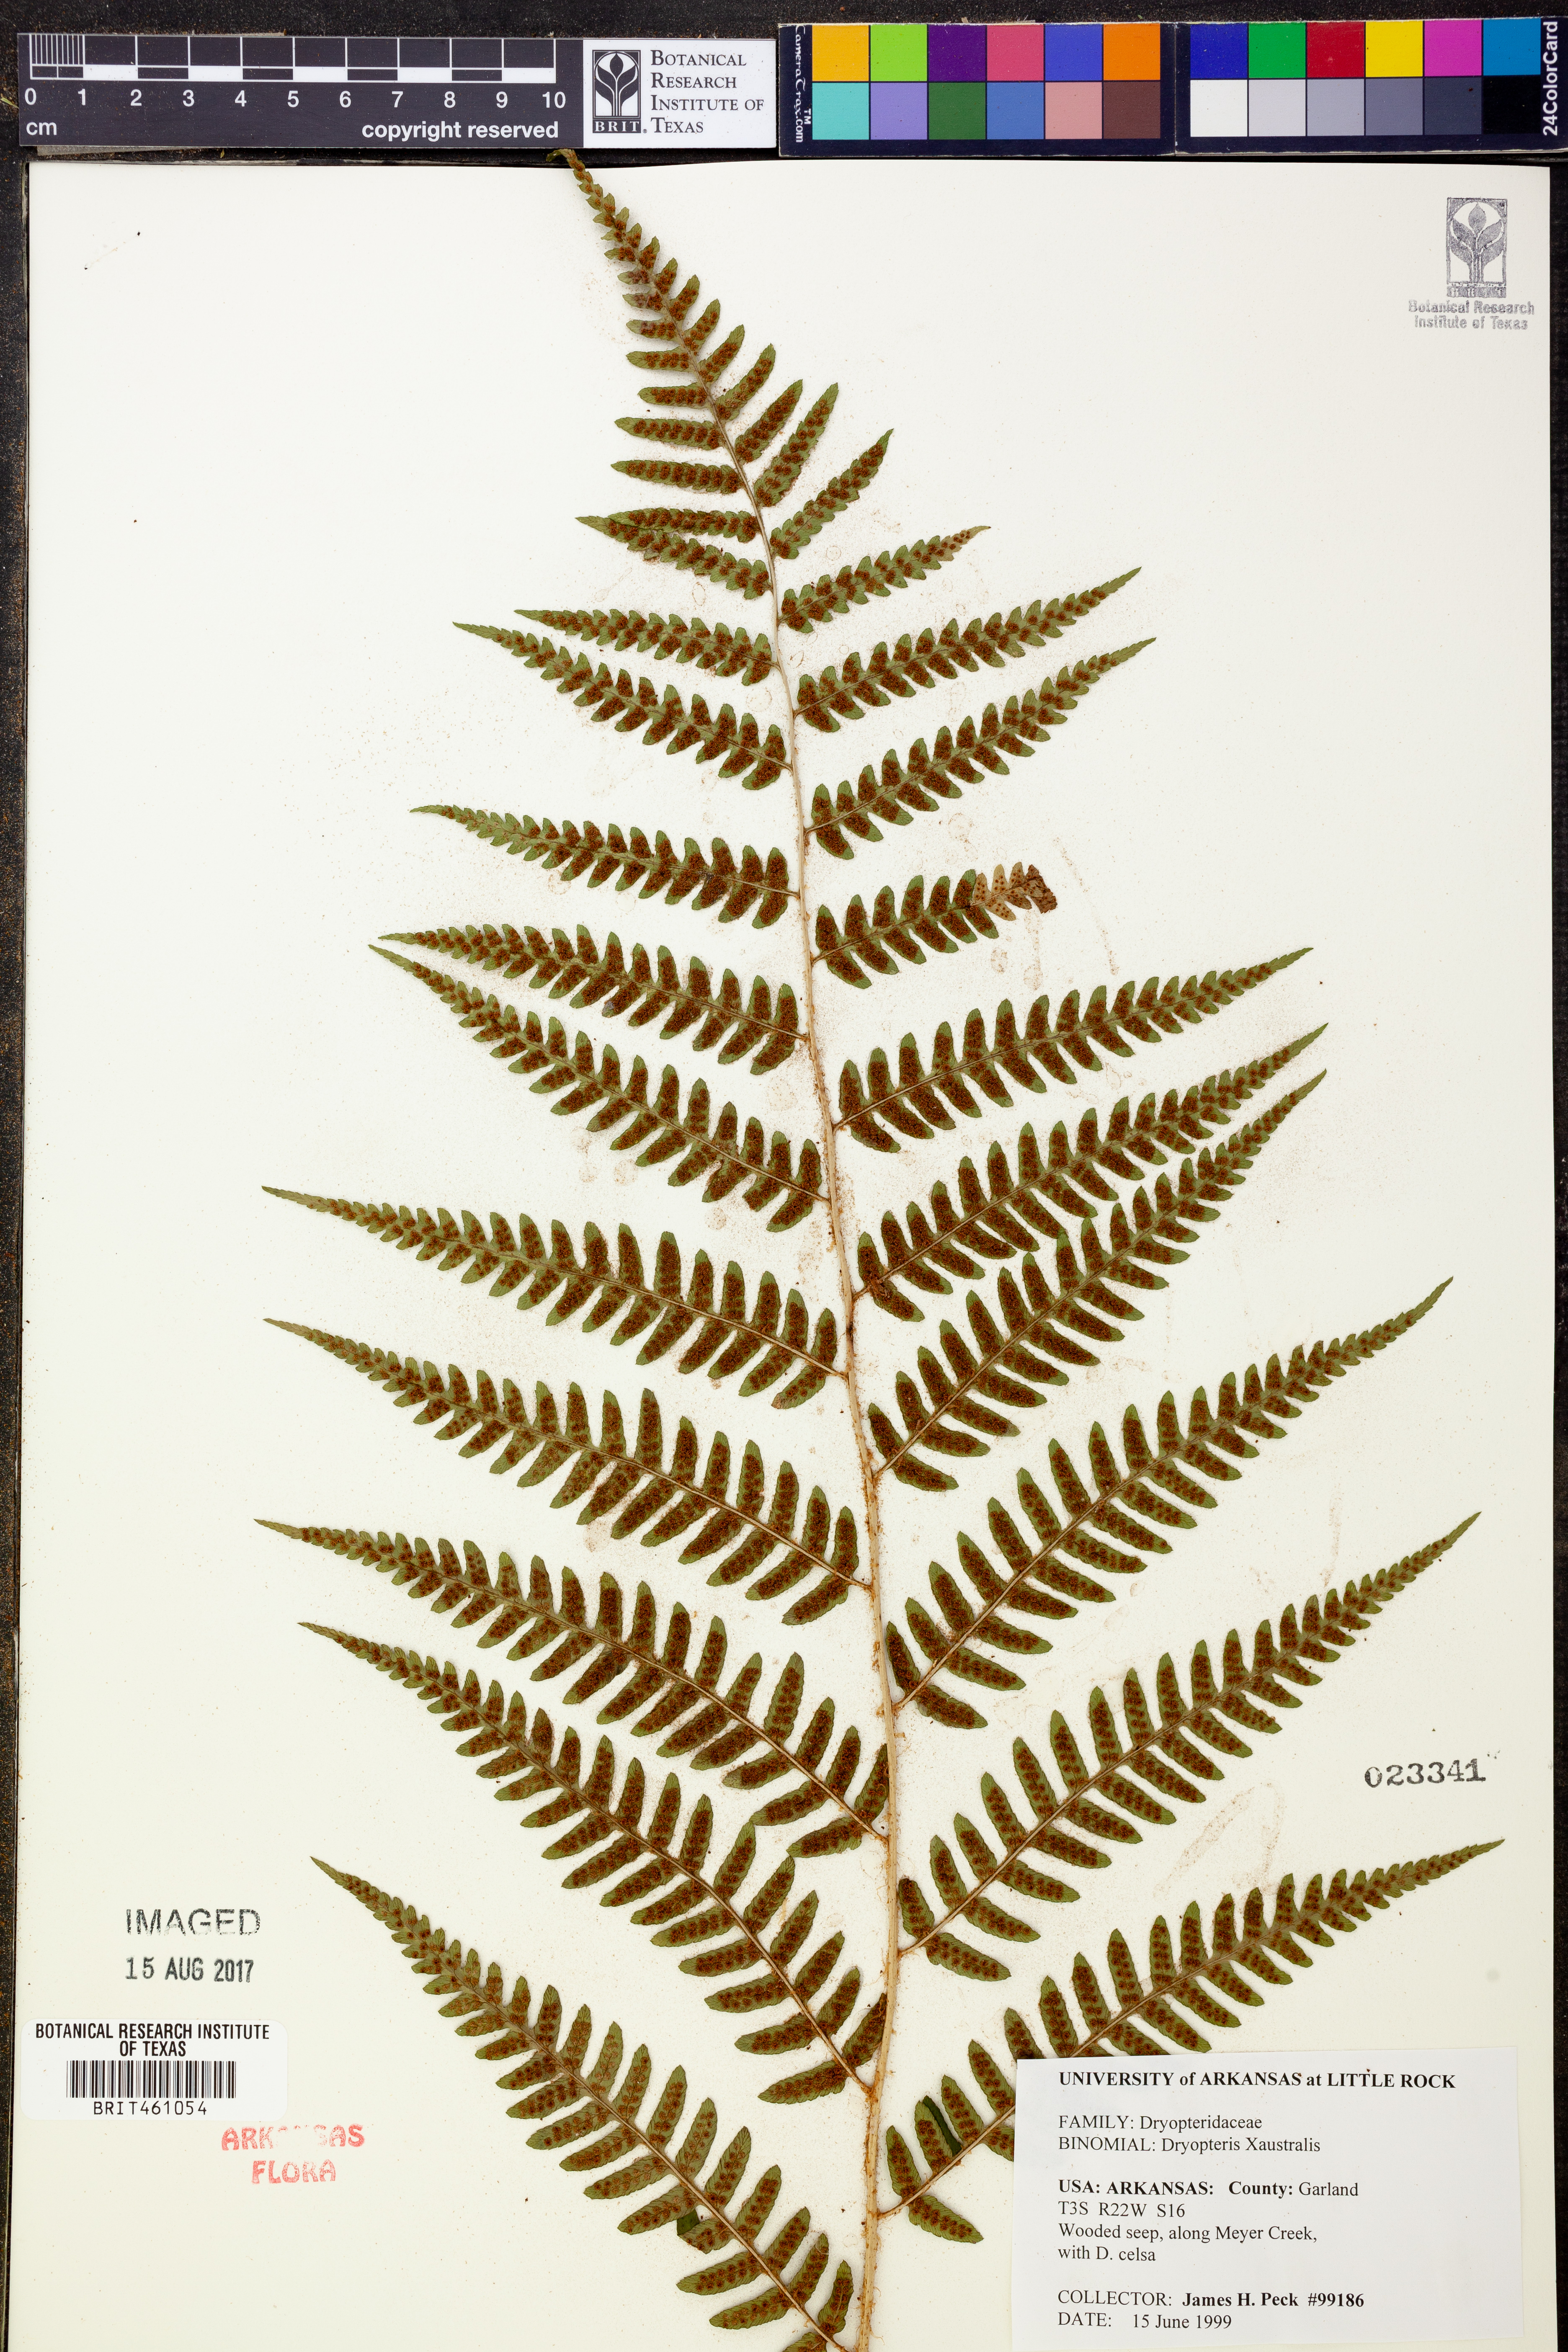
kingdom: Plantae
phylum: Tracheophyta
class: Polypodiopsida
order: Polypodiales
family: Dryopteridaceae
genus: Dryopteris
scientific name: Dryopteris australis
